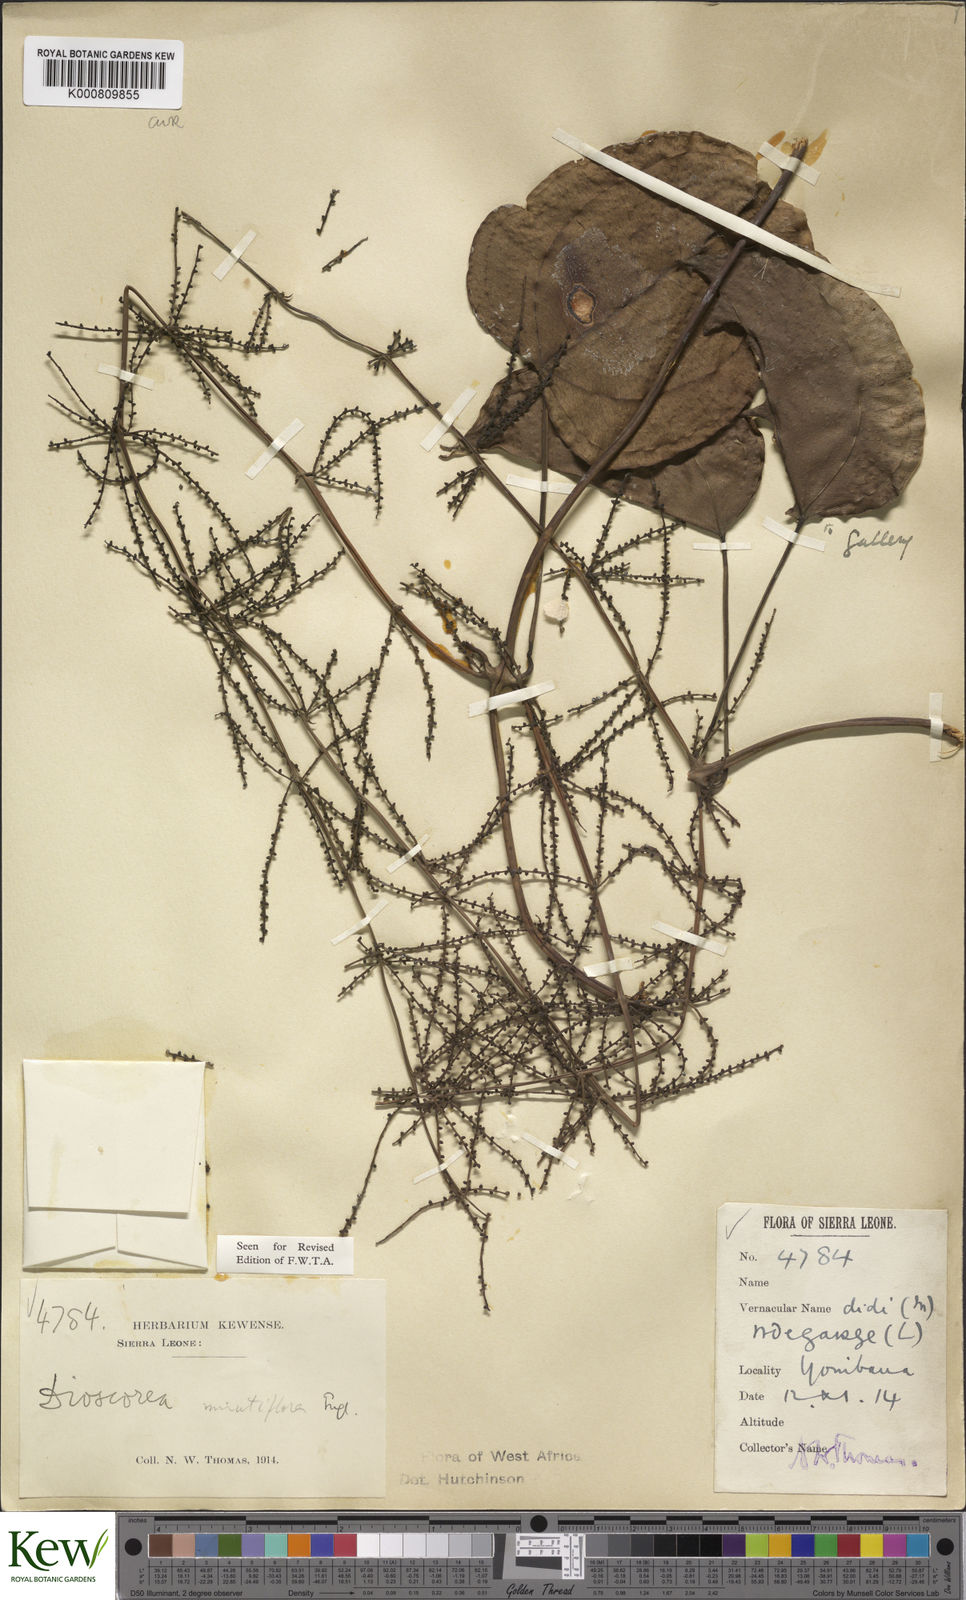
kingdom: Plantae
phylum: Tracheophyta
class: Liliopsida
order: Dioscoreales
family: Dioscoreaceae
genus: Dioscorea
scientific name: Dioscorea minutiflora
